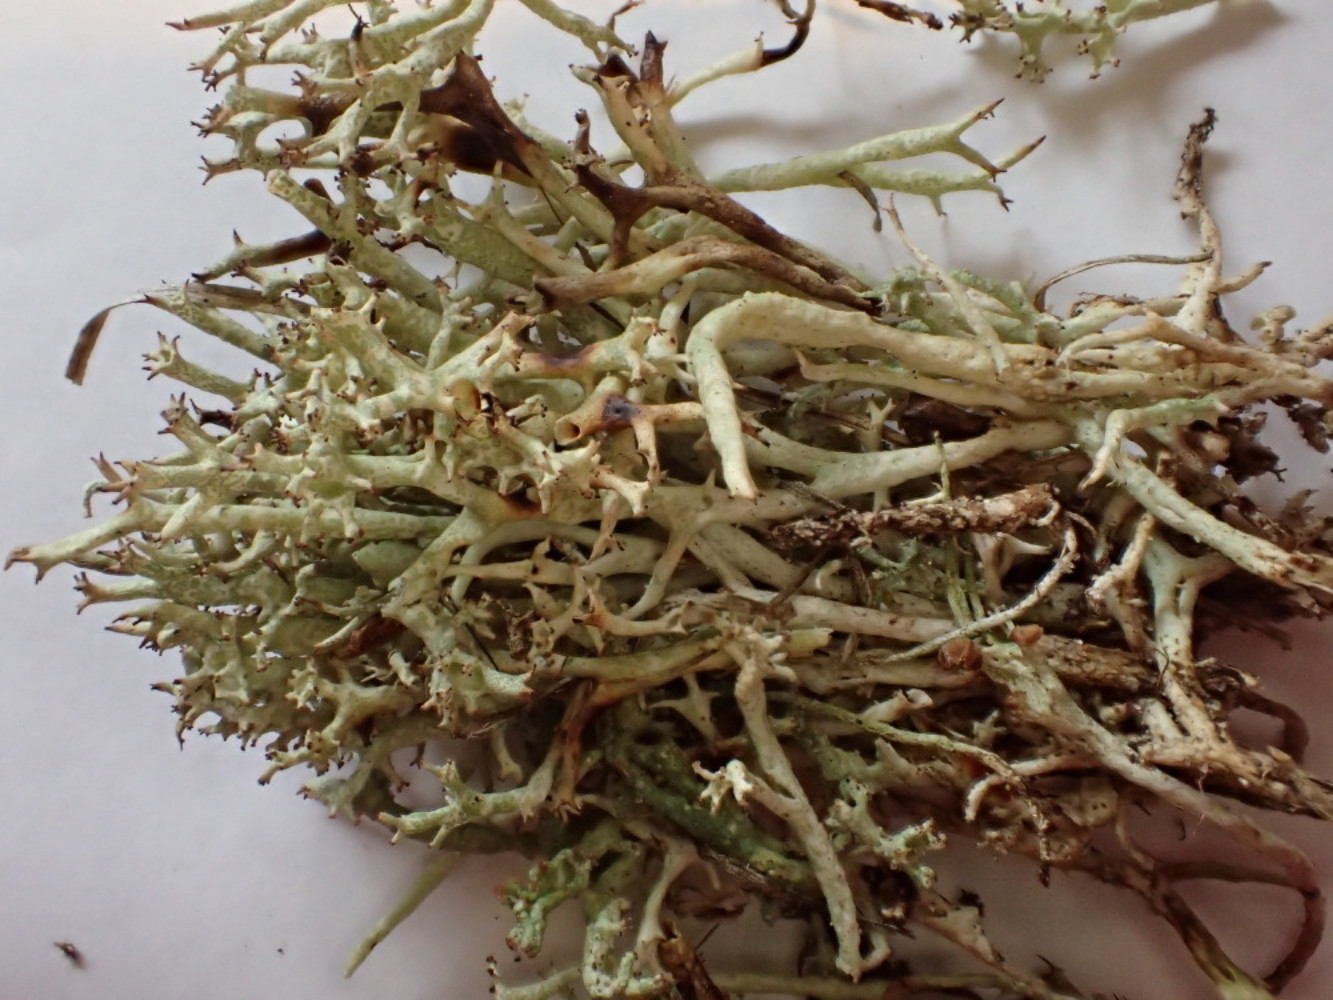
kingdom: Fungi
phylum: Ascomycota
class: Lecanoromycetes
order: Lecanorales
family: Cladoniaceae
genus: Cladonia
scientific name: Cladonia uncialis
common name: pigget bægerlav
